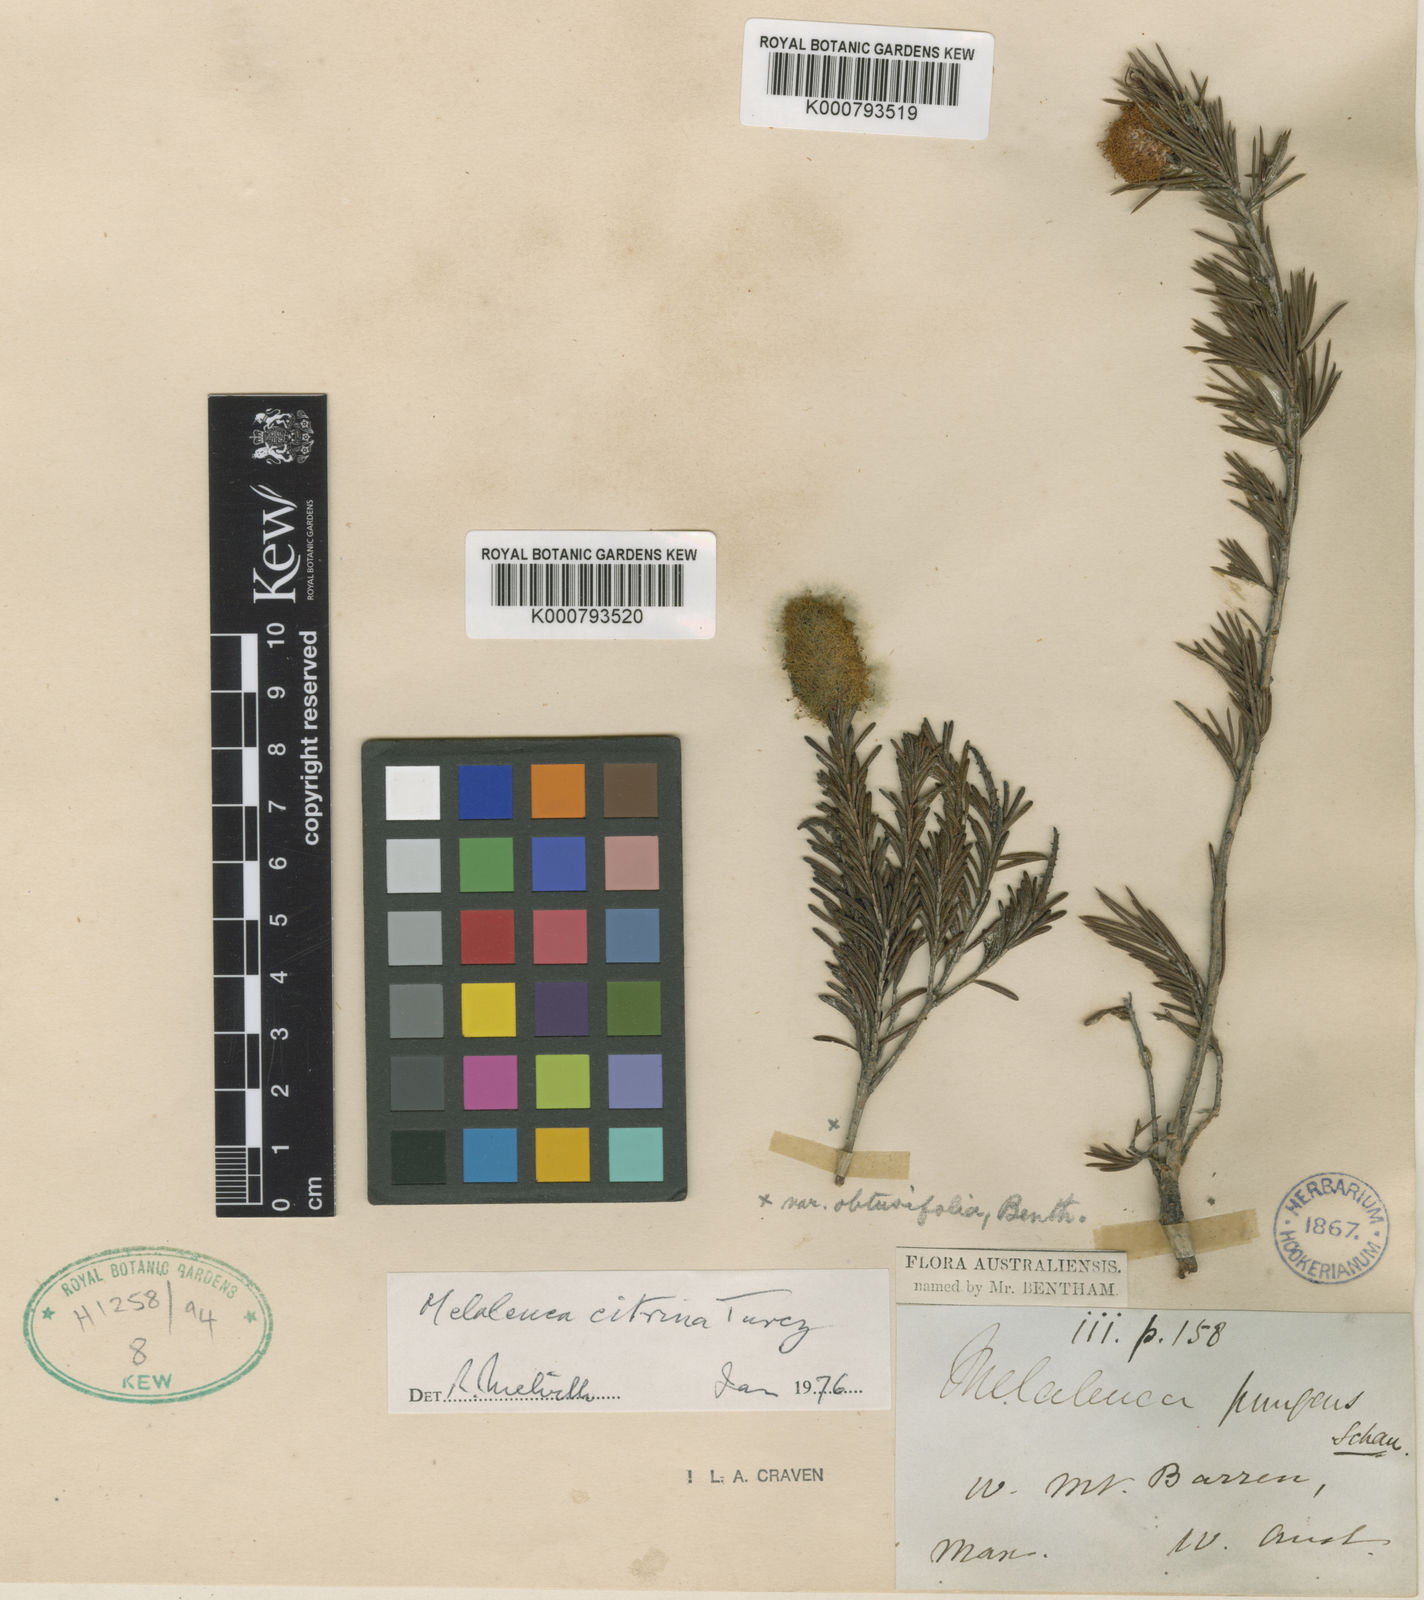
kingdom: Plantae
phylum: Tracheophyta
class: Magnoliopsida
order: Myrtales
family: Myrtaceae
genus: Melaleuca
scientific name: Melaleuca lutea
